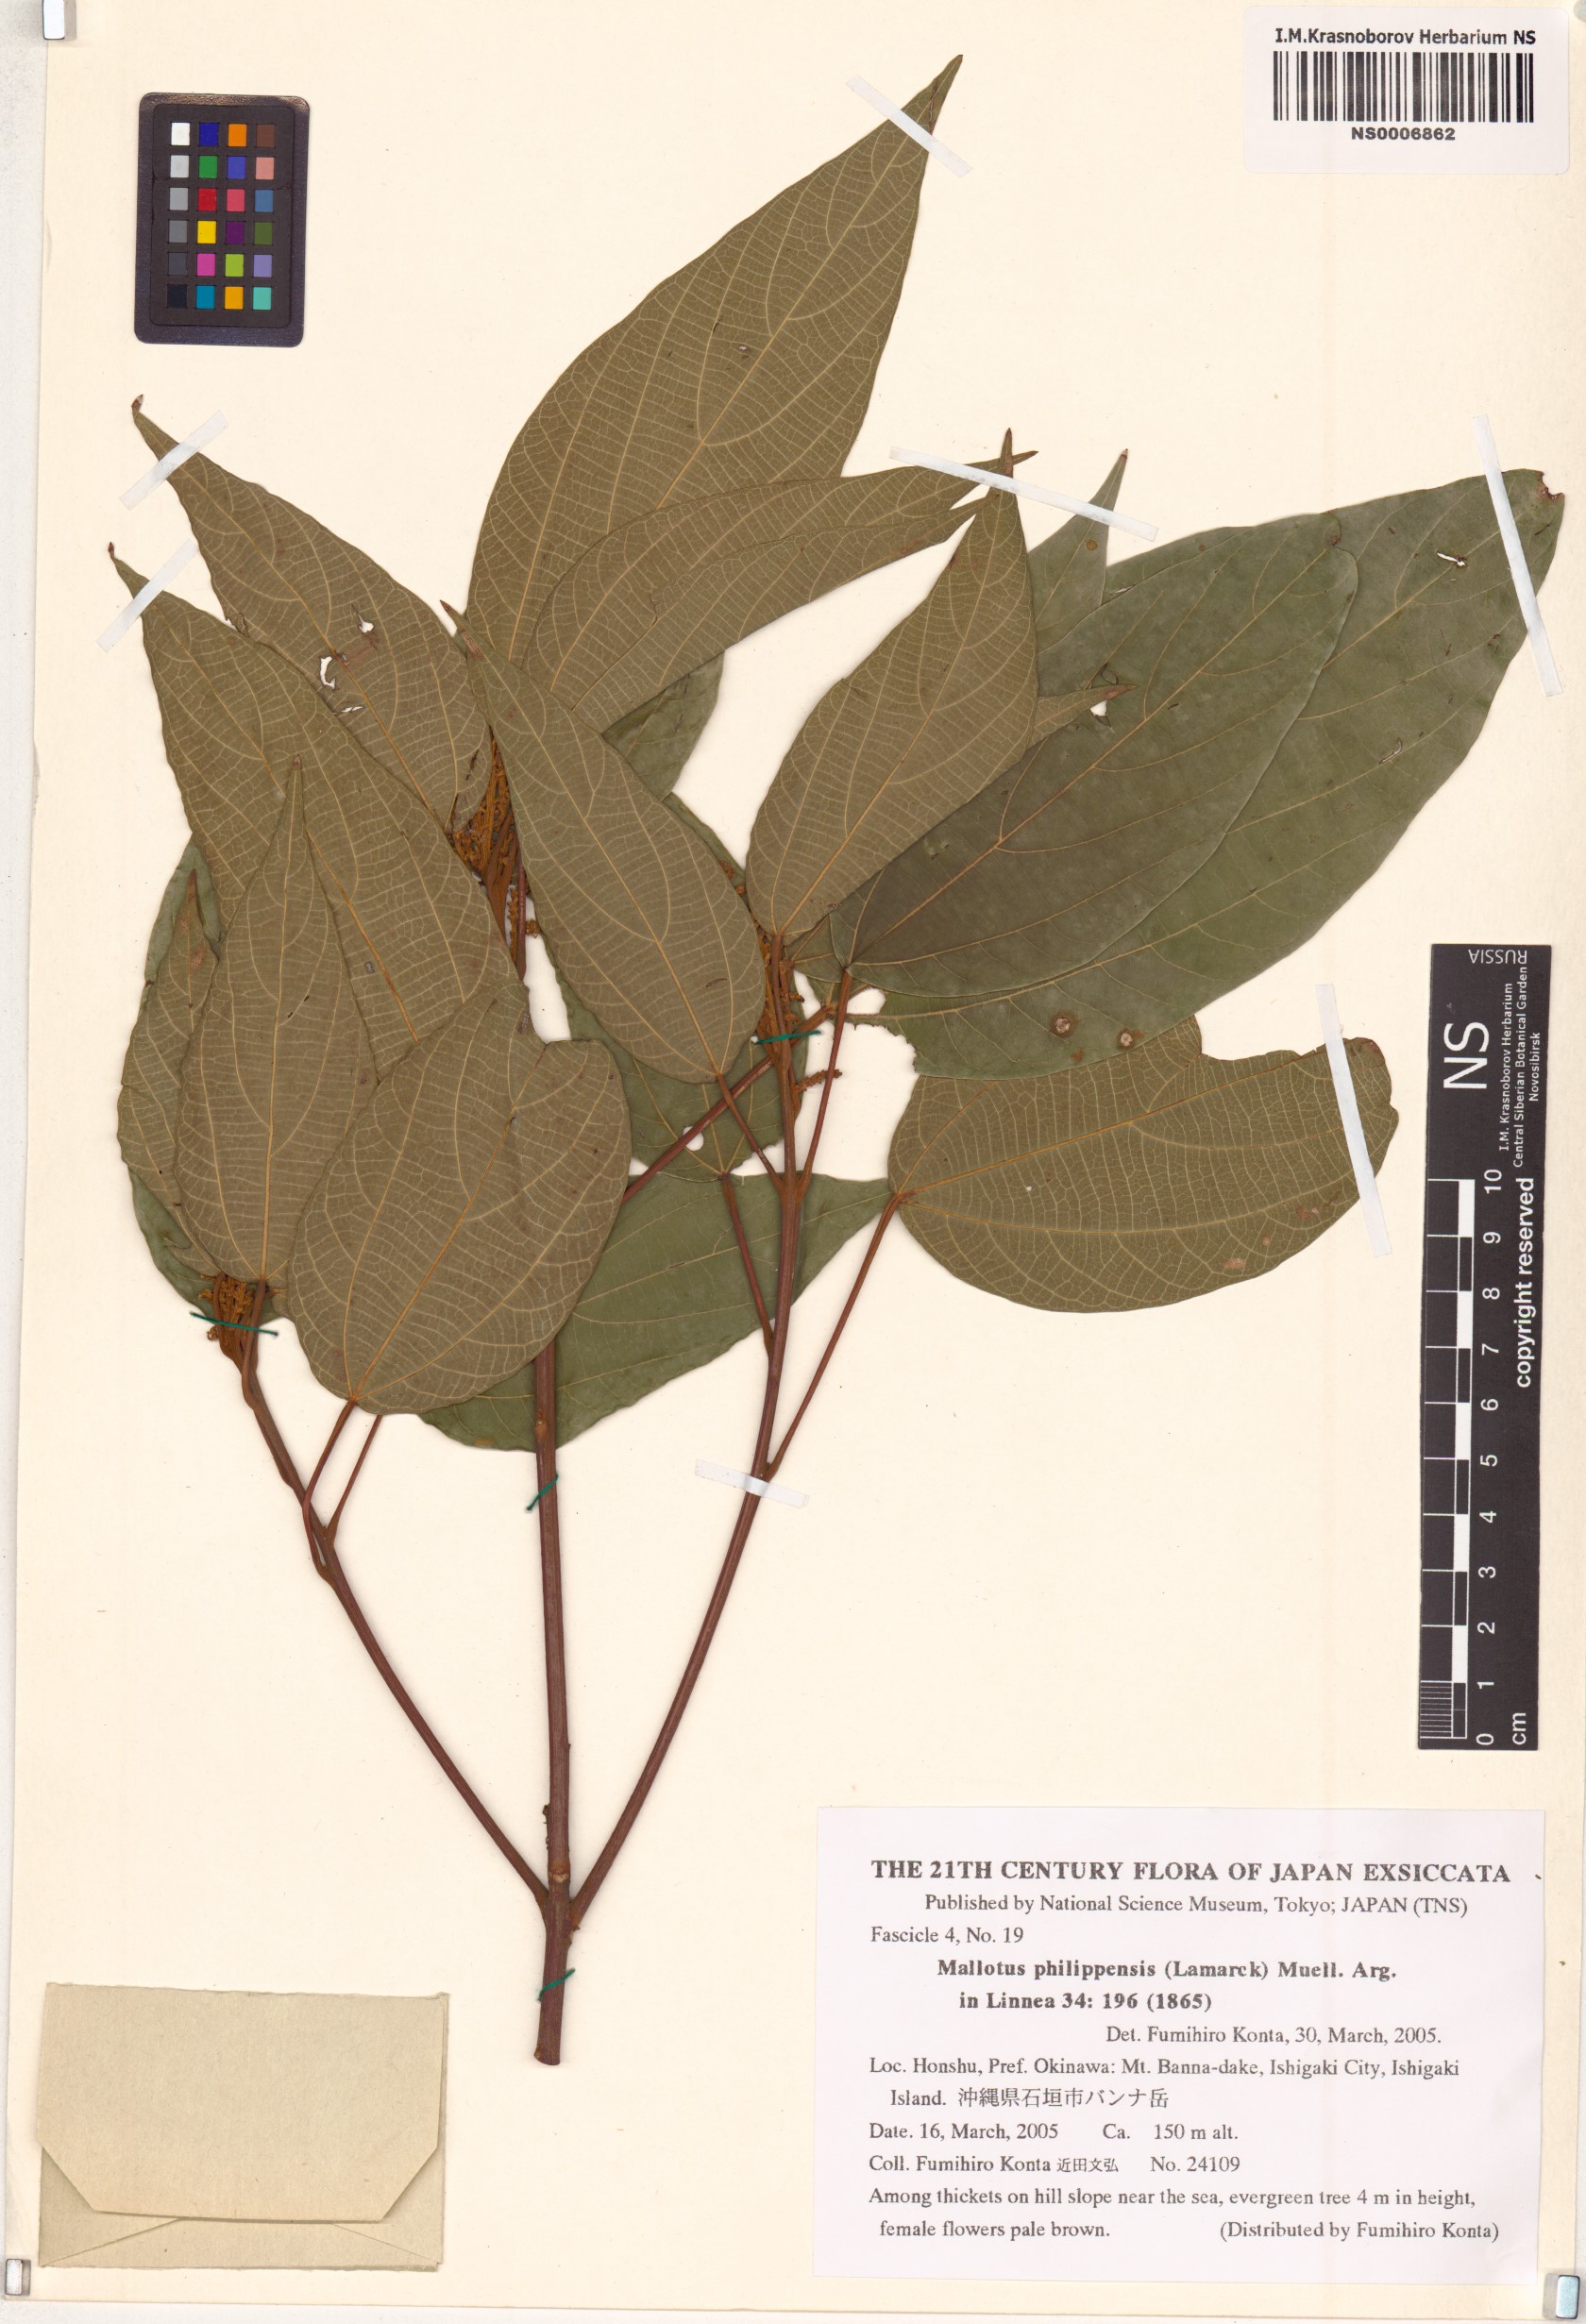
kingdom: Plantae
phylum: Tracheophyta
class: Magnoliopsida
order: Malpighiales
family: Euphorbiaceae
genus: Mallotus
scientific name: Mallotus philippensis
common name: Kamala tree
